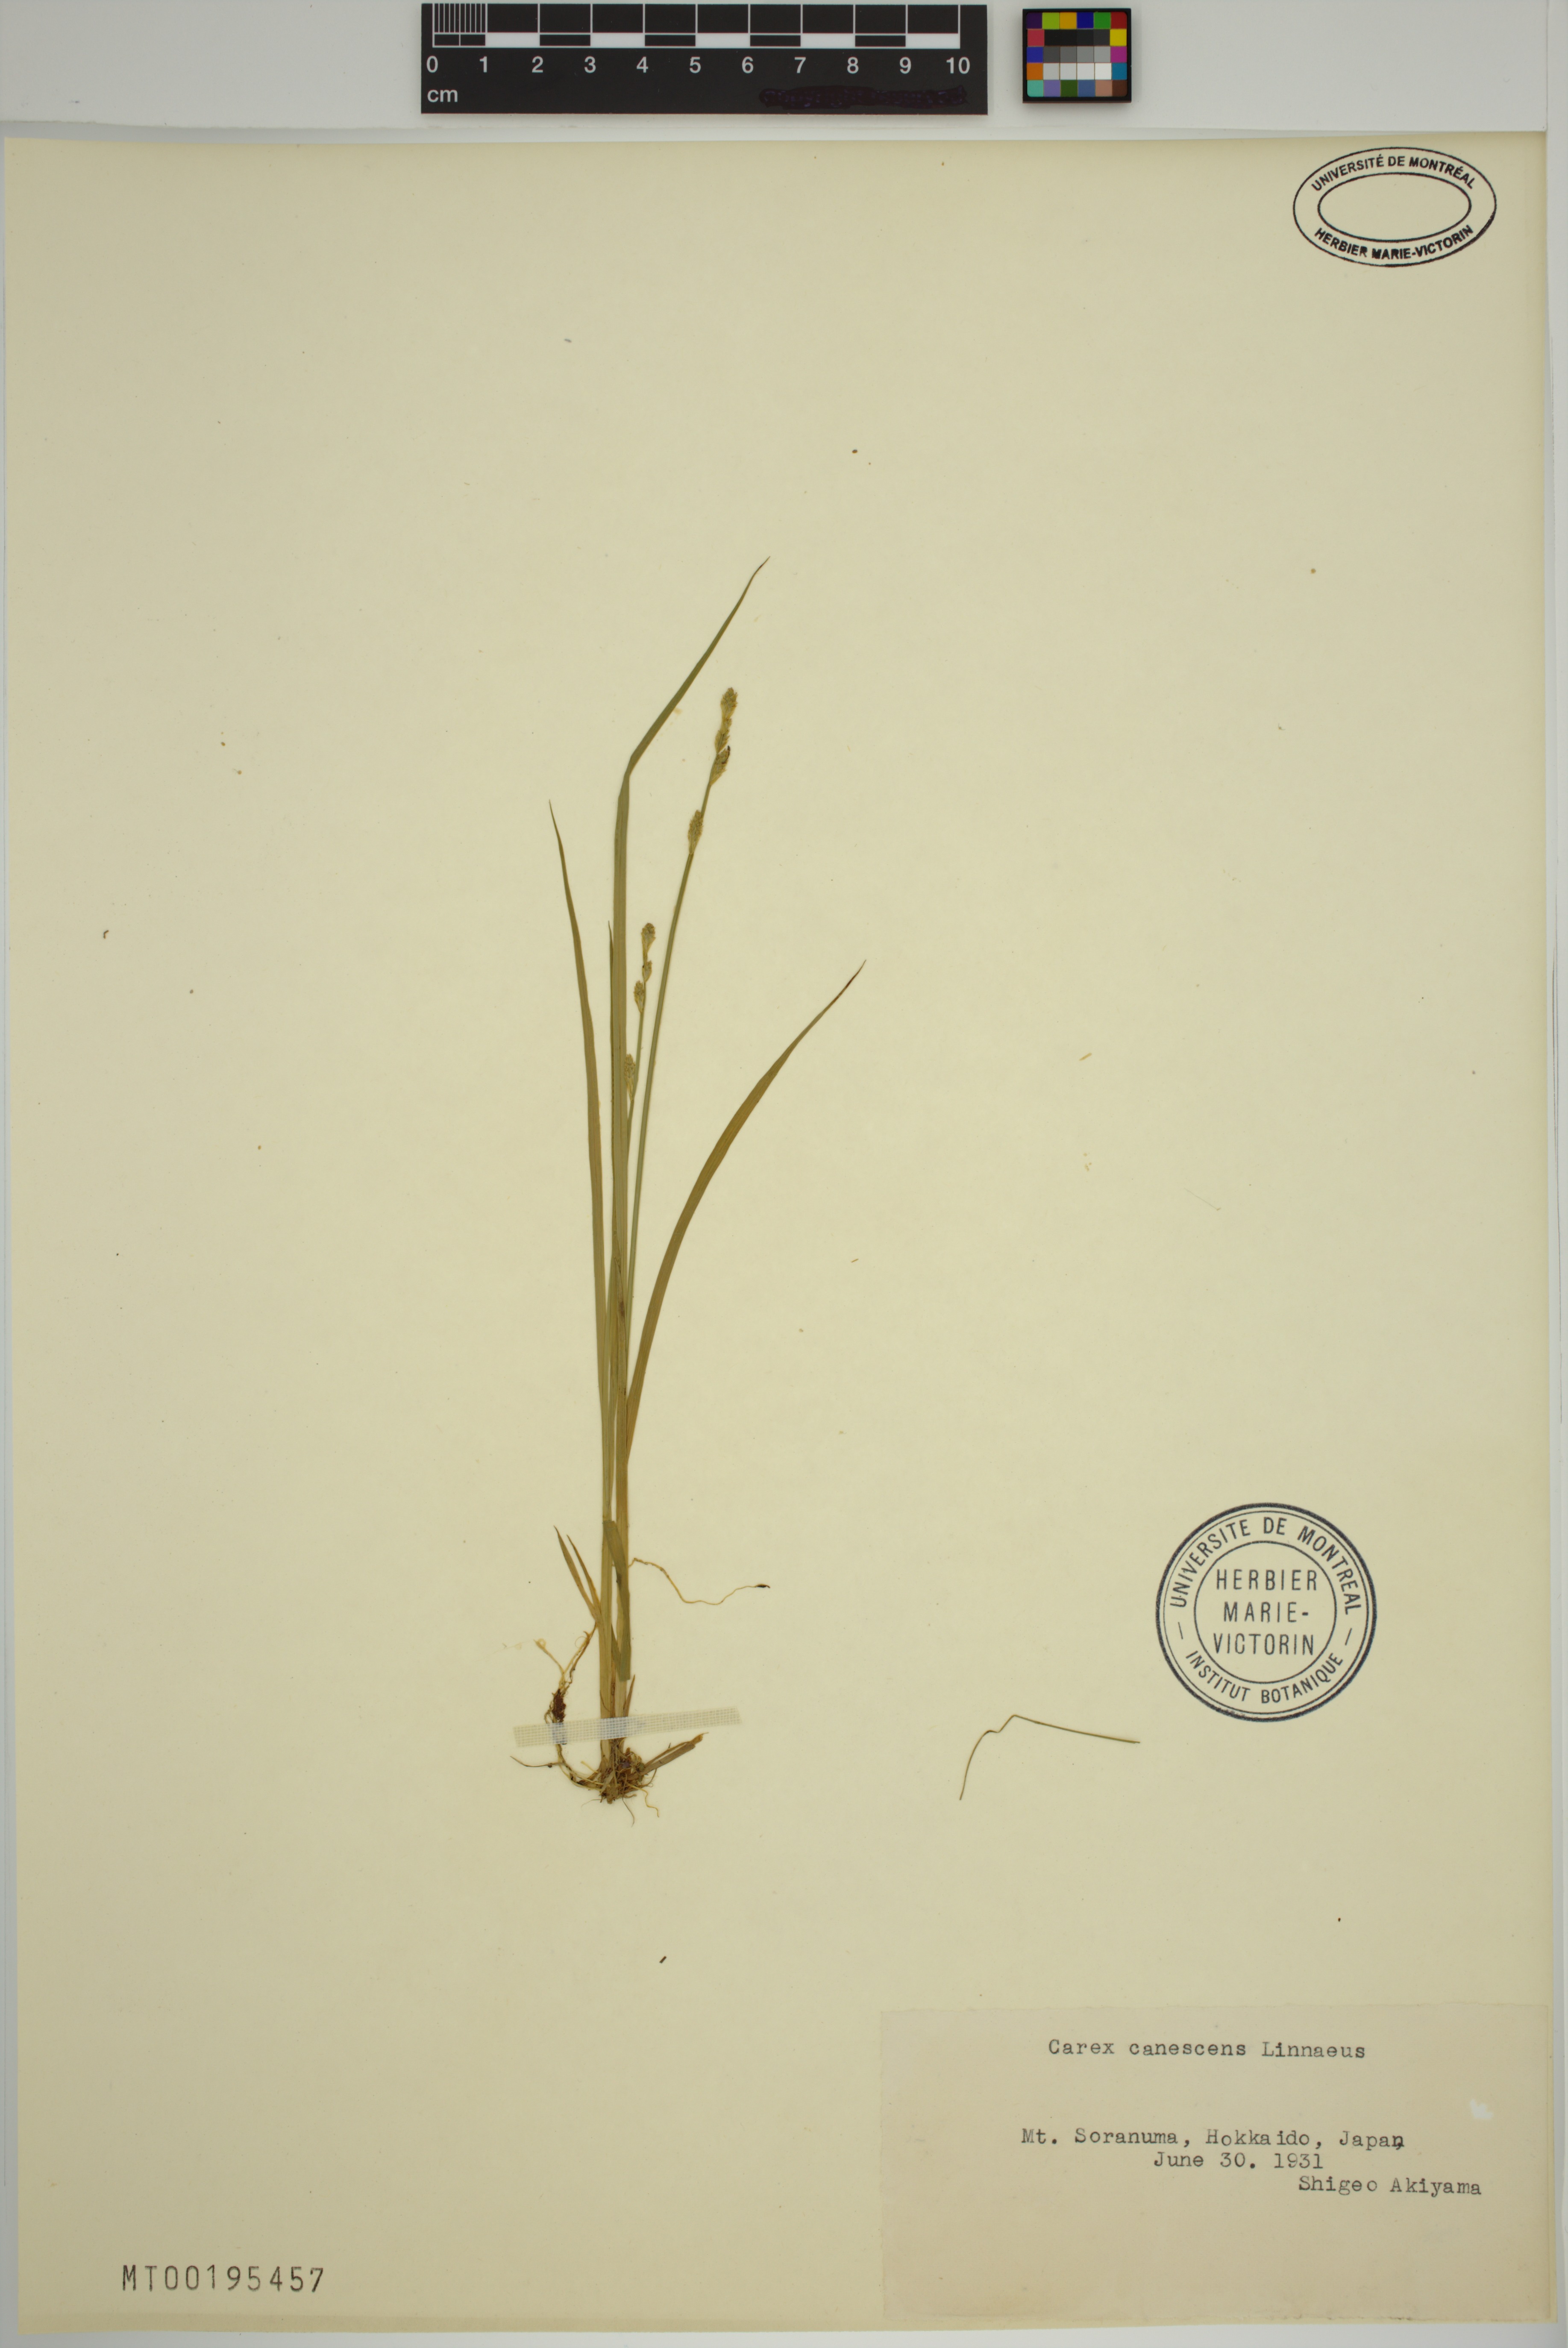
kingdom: Plantae
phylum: Tracheophyta
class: Liliopsida
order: Poales
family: Cyperaceae
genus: Carex
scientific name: Carex canescens
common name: White sedge
